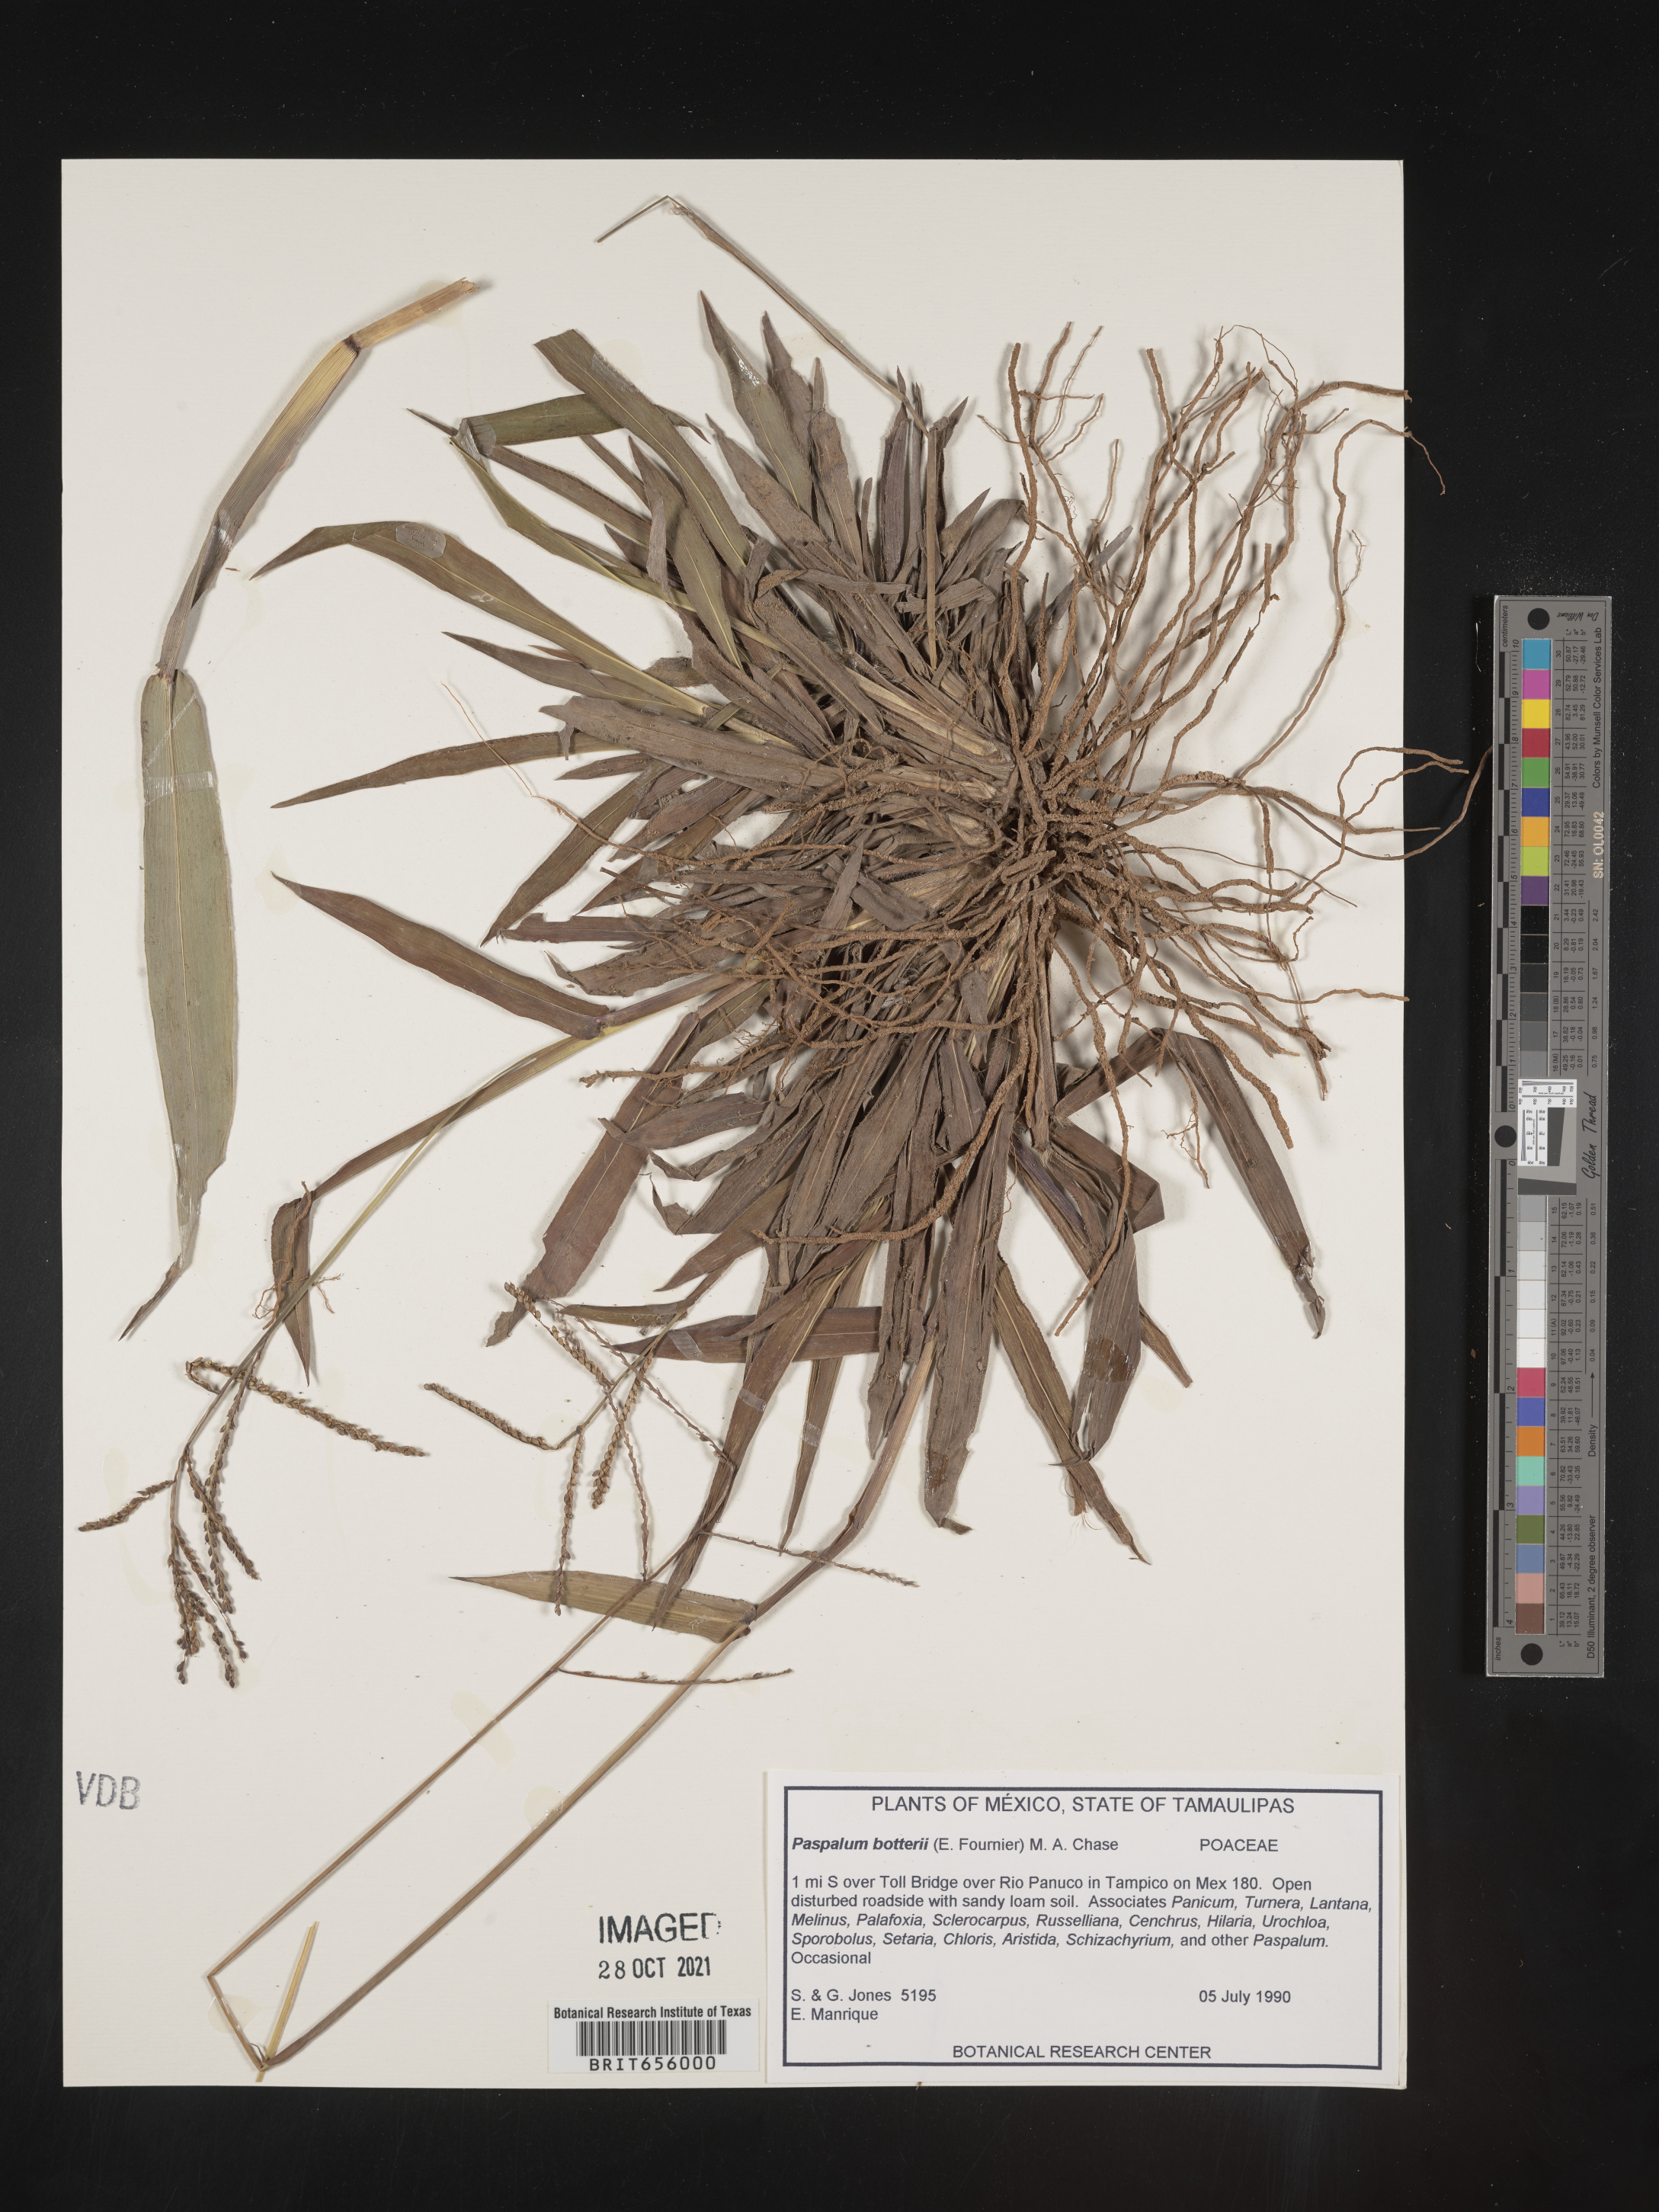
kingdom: Plantae
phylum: Tracheophyta
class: Liliopsida
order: Poales
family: Poaceae
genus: Paspalum
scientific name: Paspalum
